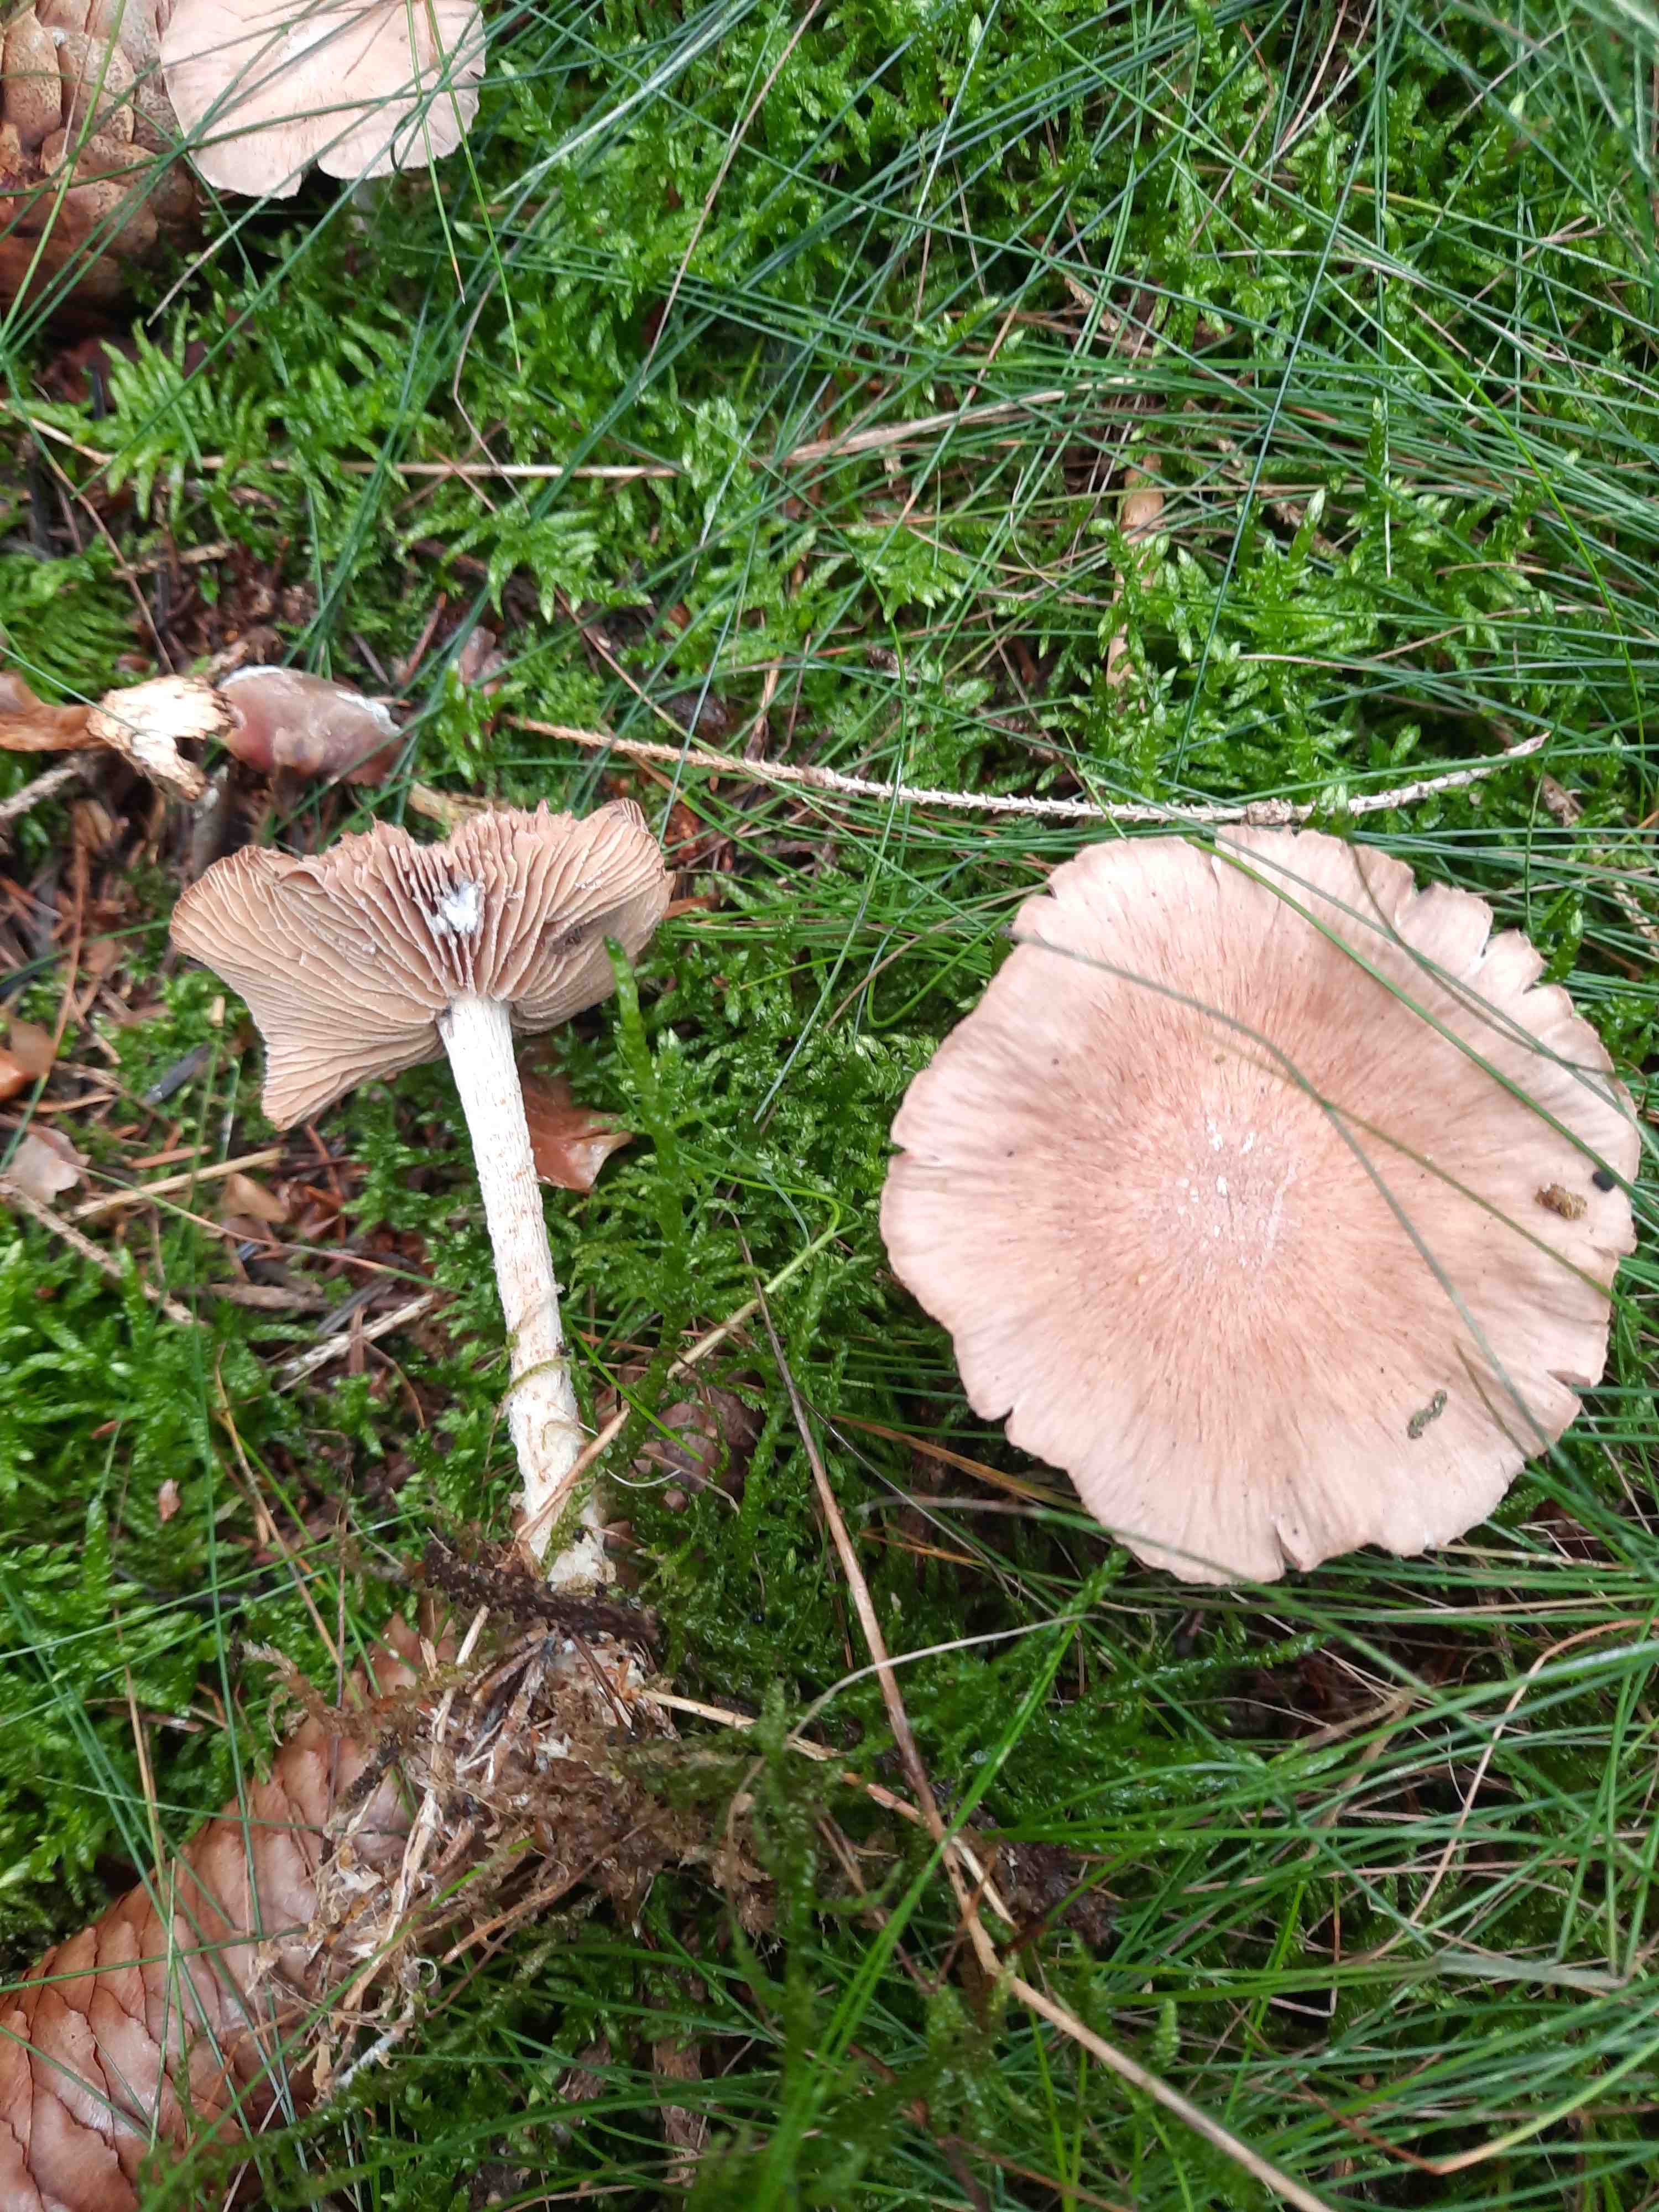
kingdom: Fungi
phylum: Basidiomycota
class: Agaricomycetes
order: Agaricales
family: Omphalotaceae
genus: Collybiopsis
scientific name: Collybiopsis peronata
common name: bestøvlet fladhat
